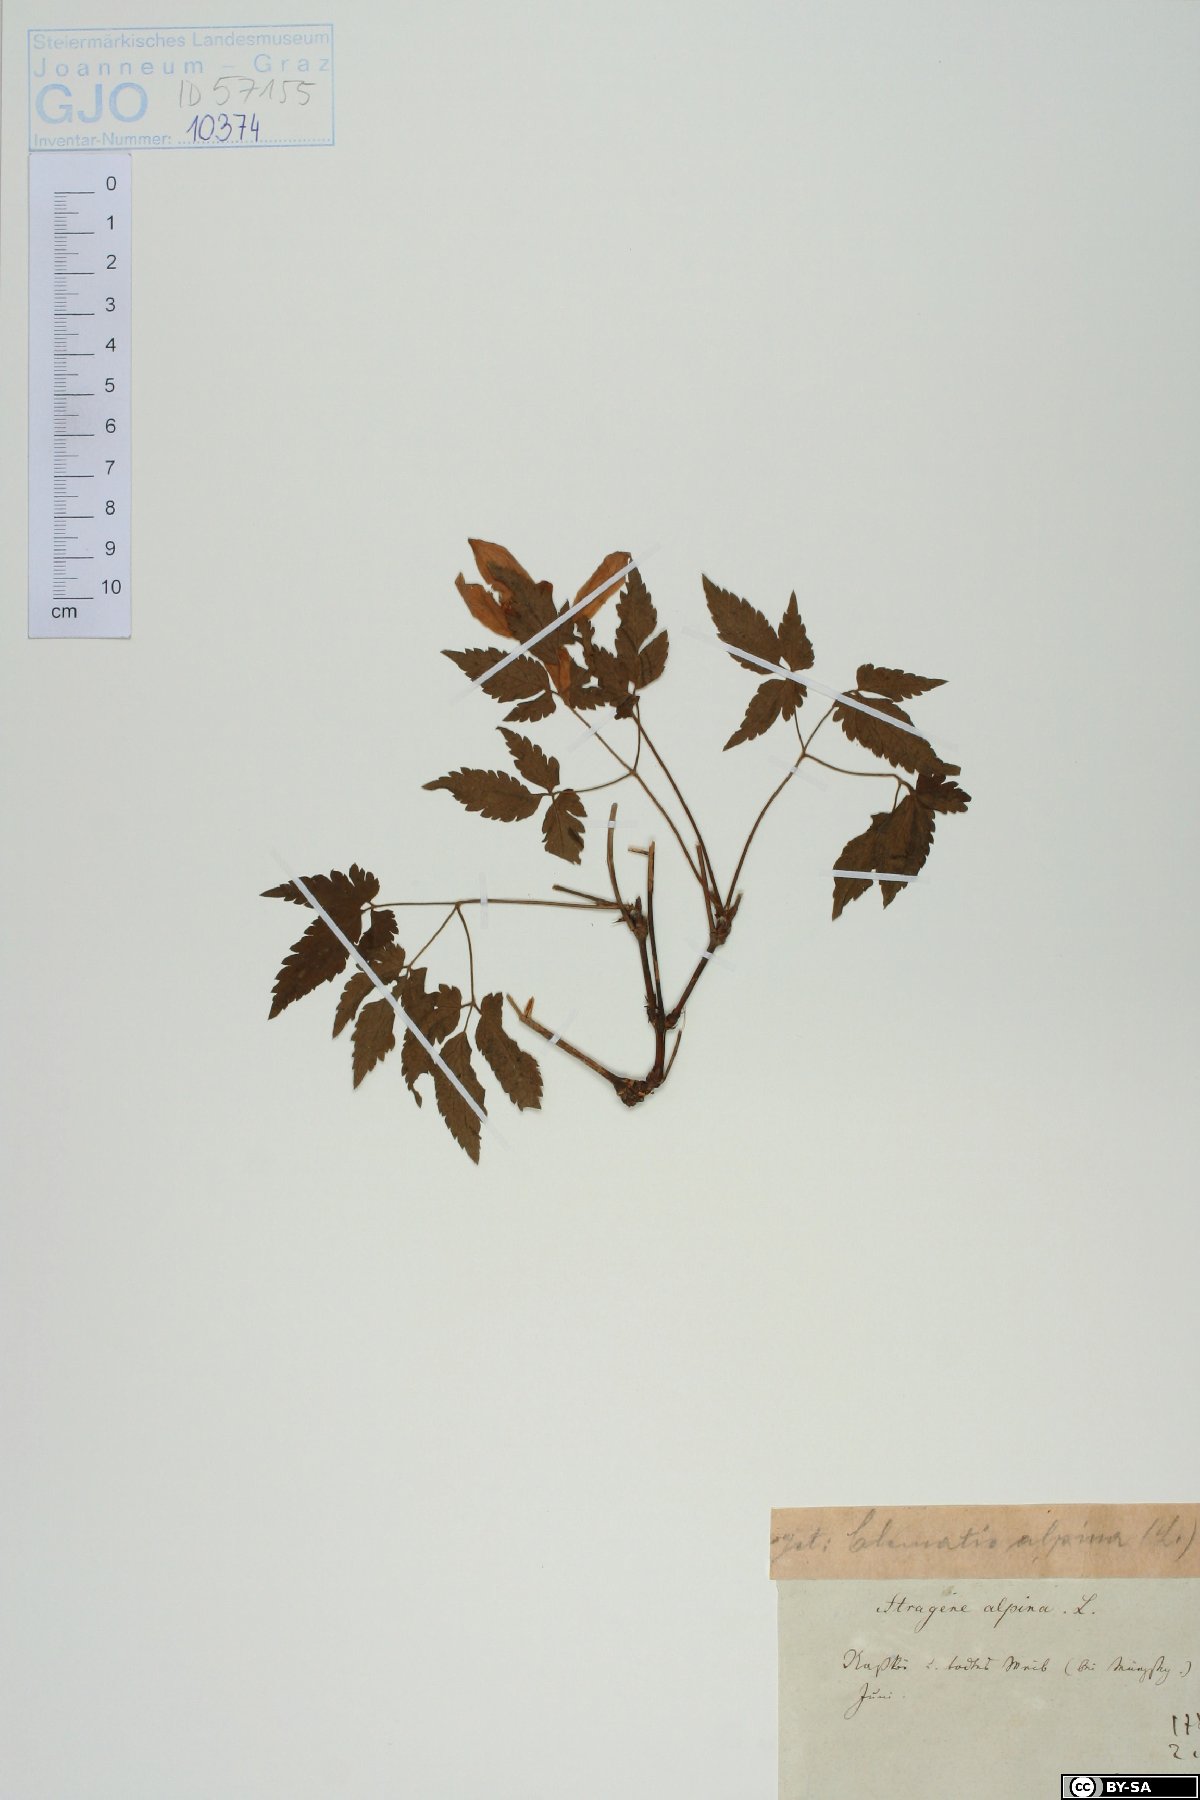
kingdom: Plantae
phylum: Tracheophyta
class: Magnoliopsida
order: Ranunculales
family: Ranunculaceae
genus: Clematis
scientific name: Clematis alpina
